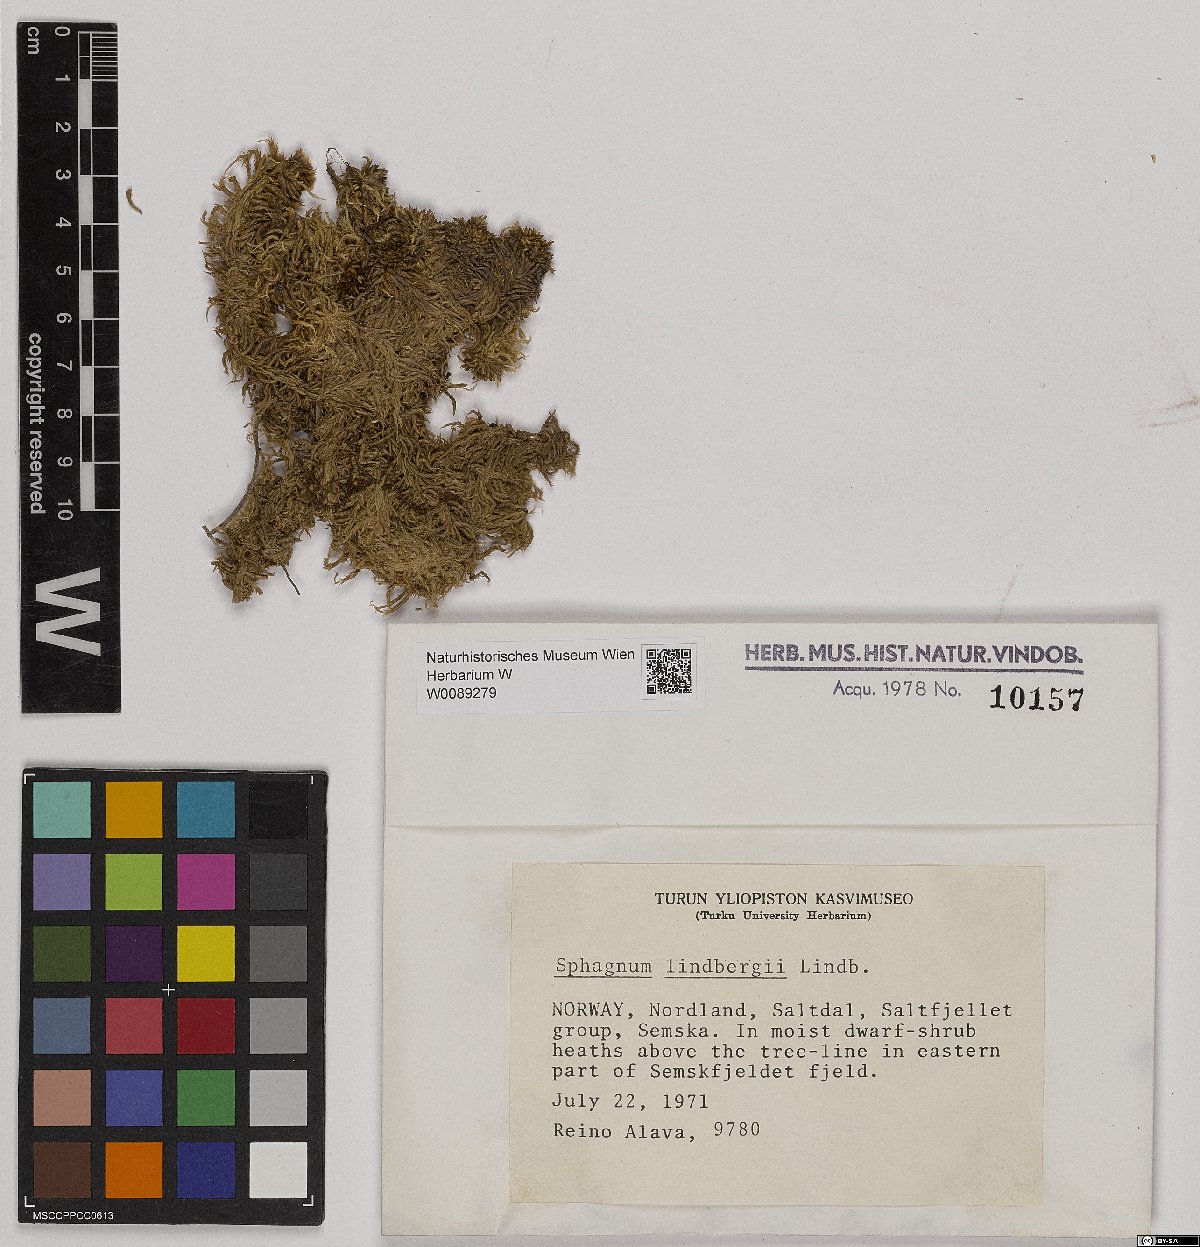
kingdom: Plantae
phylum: Bryophyta
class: Sphagnopsida
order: Sphagnales
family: Sphagnaceae
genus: Sphagnum
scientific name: Sphagnum lindbergii
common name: Lindberg's peat moss
